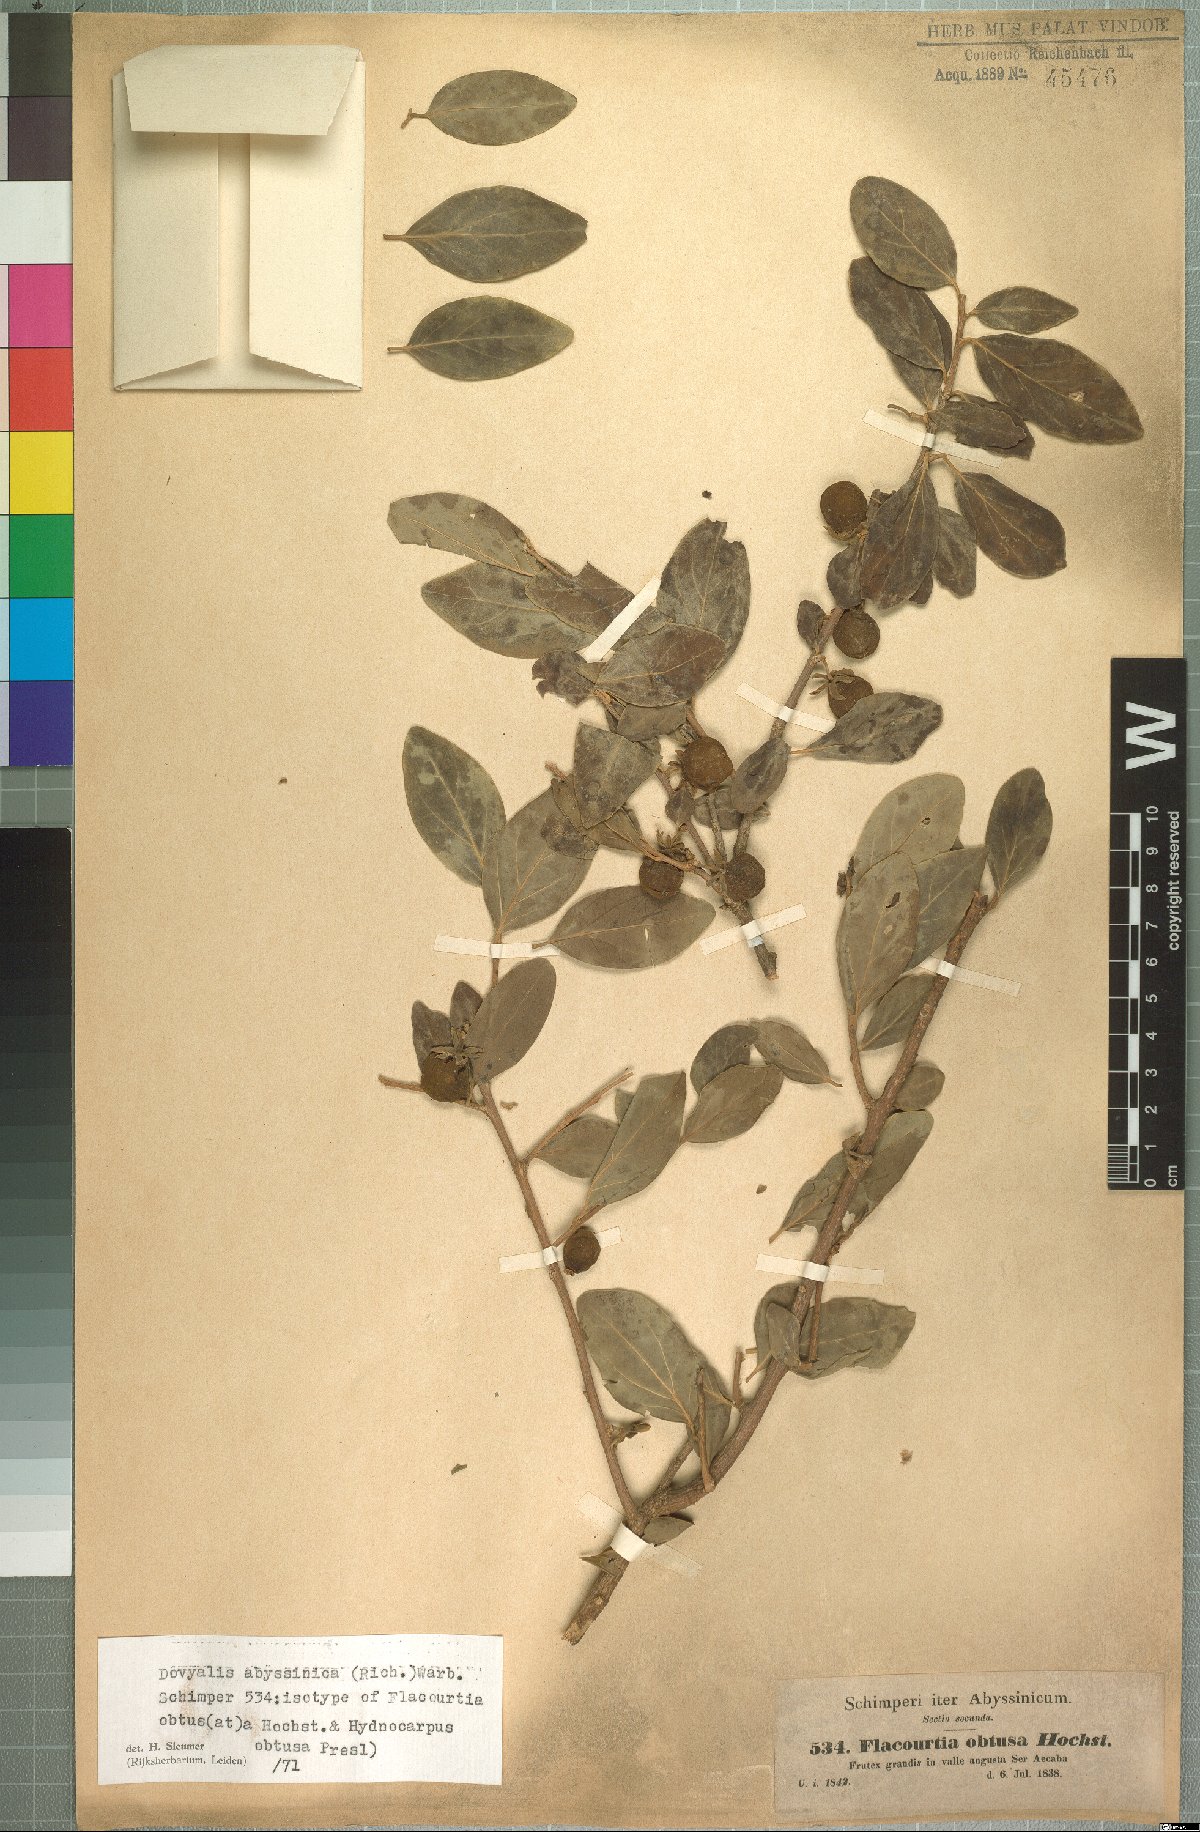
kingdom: Plantae
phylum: Tracheophyta
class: Magnoliopsida
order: Malpighiales
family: Salicaceae
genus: Dovyalis
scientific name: Dovyalis abyssinica
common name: Abyssinian-gooseberry
